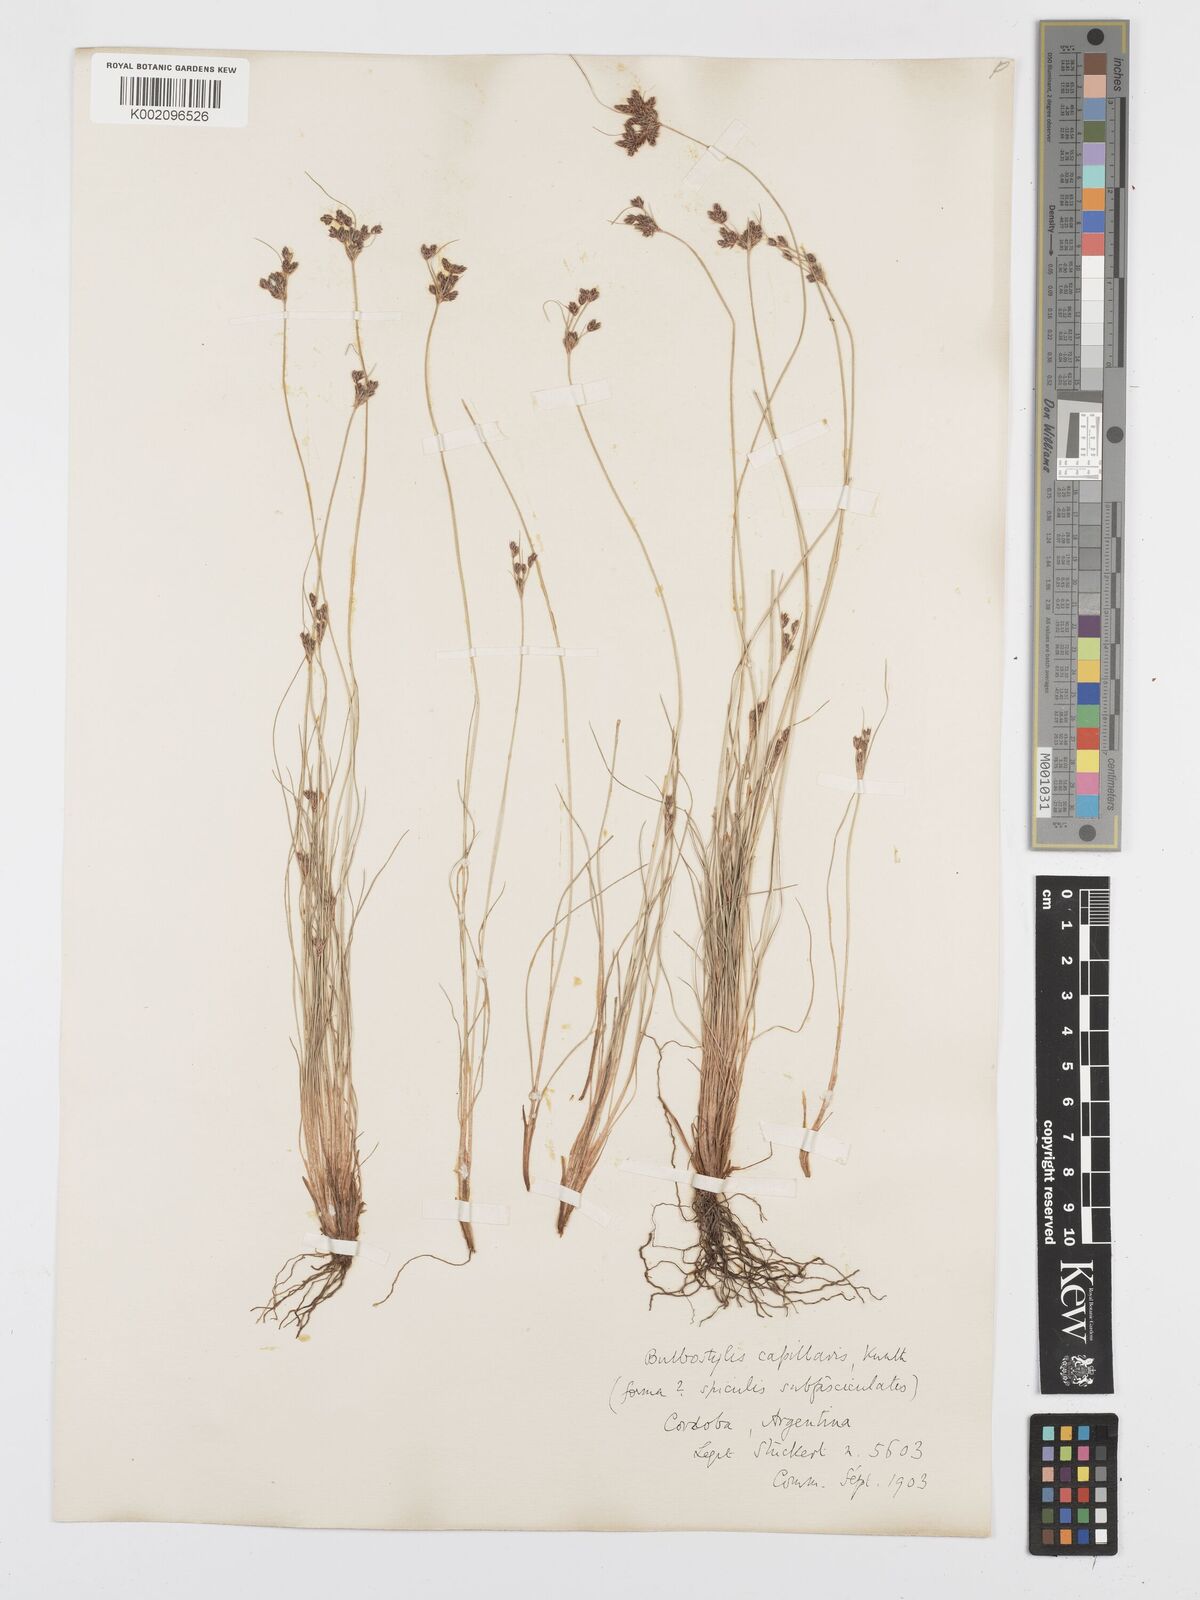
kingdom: Plantae
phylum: Tracheophyta
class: Liliopsida
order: Poales
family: Cyperaceae
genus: Bulbostylis
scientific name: Bulbostylis capillaris
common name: Densetuft hairsedge
